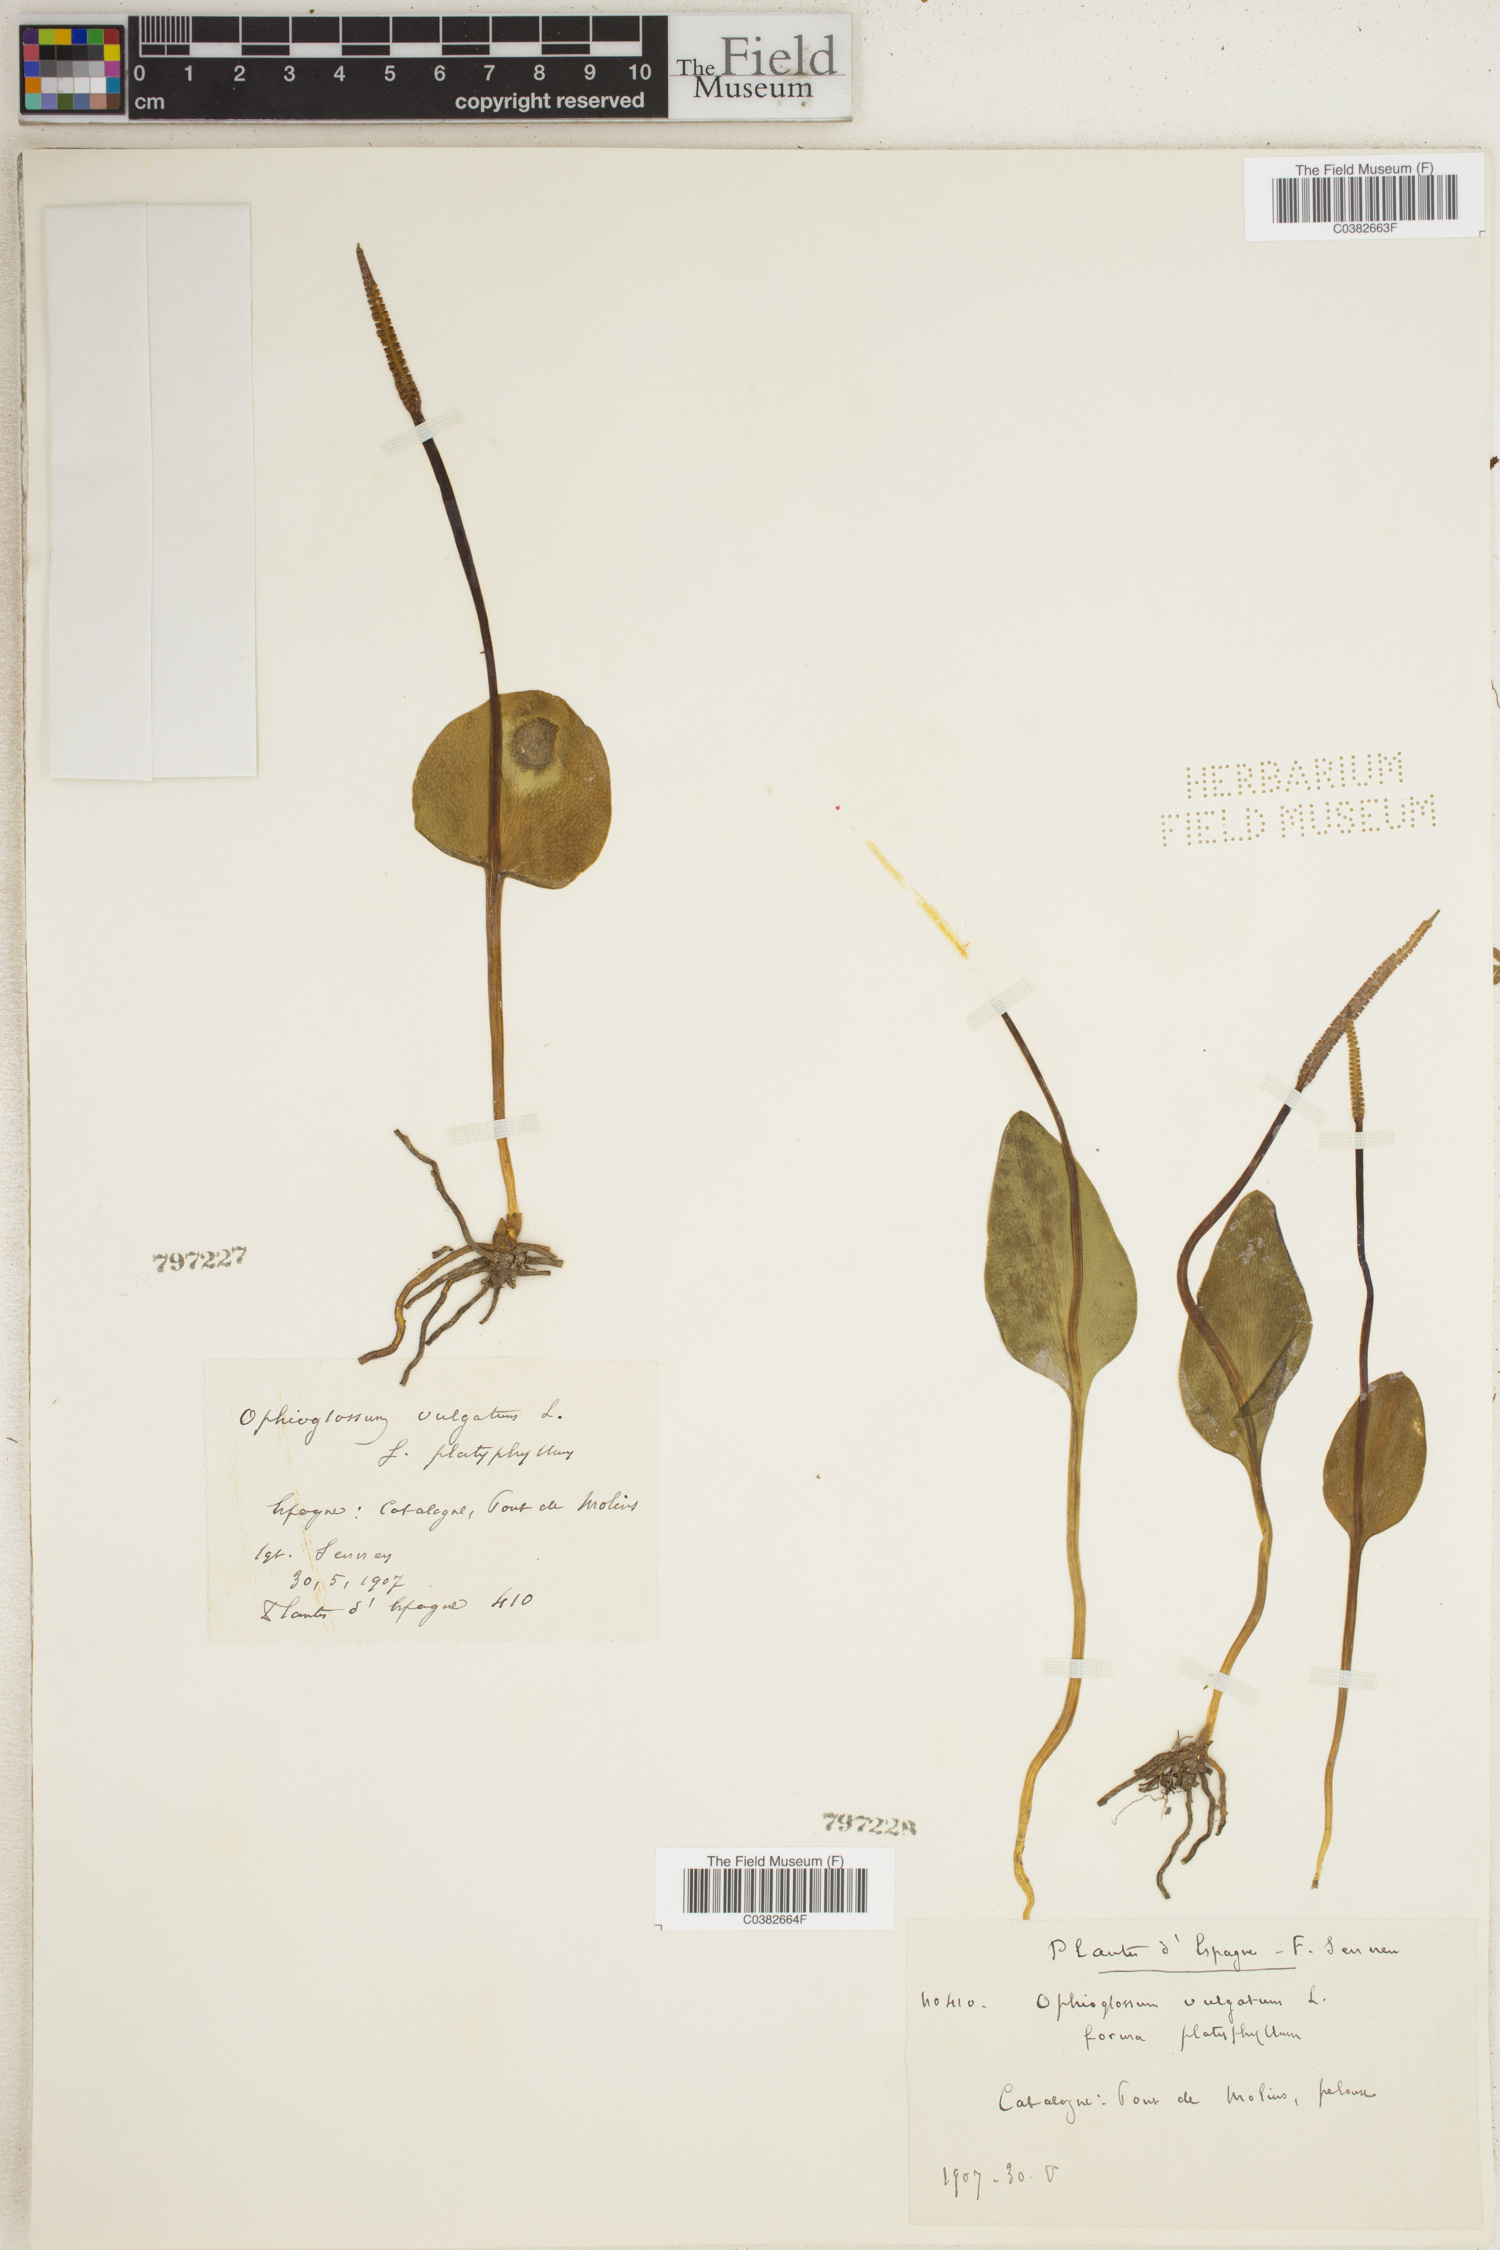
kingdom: Plantae
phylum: Tracheophyta
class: Polypodiopsida
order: Ophioglossales
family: Ophioglossaceae
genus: Ophioglossum
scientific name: Ophioglossum vulgatum
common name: Adder's-tongue
